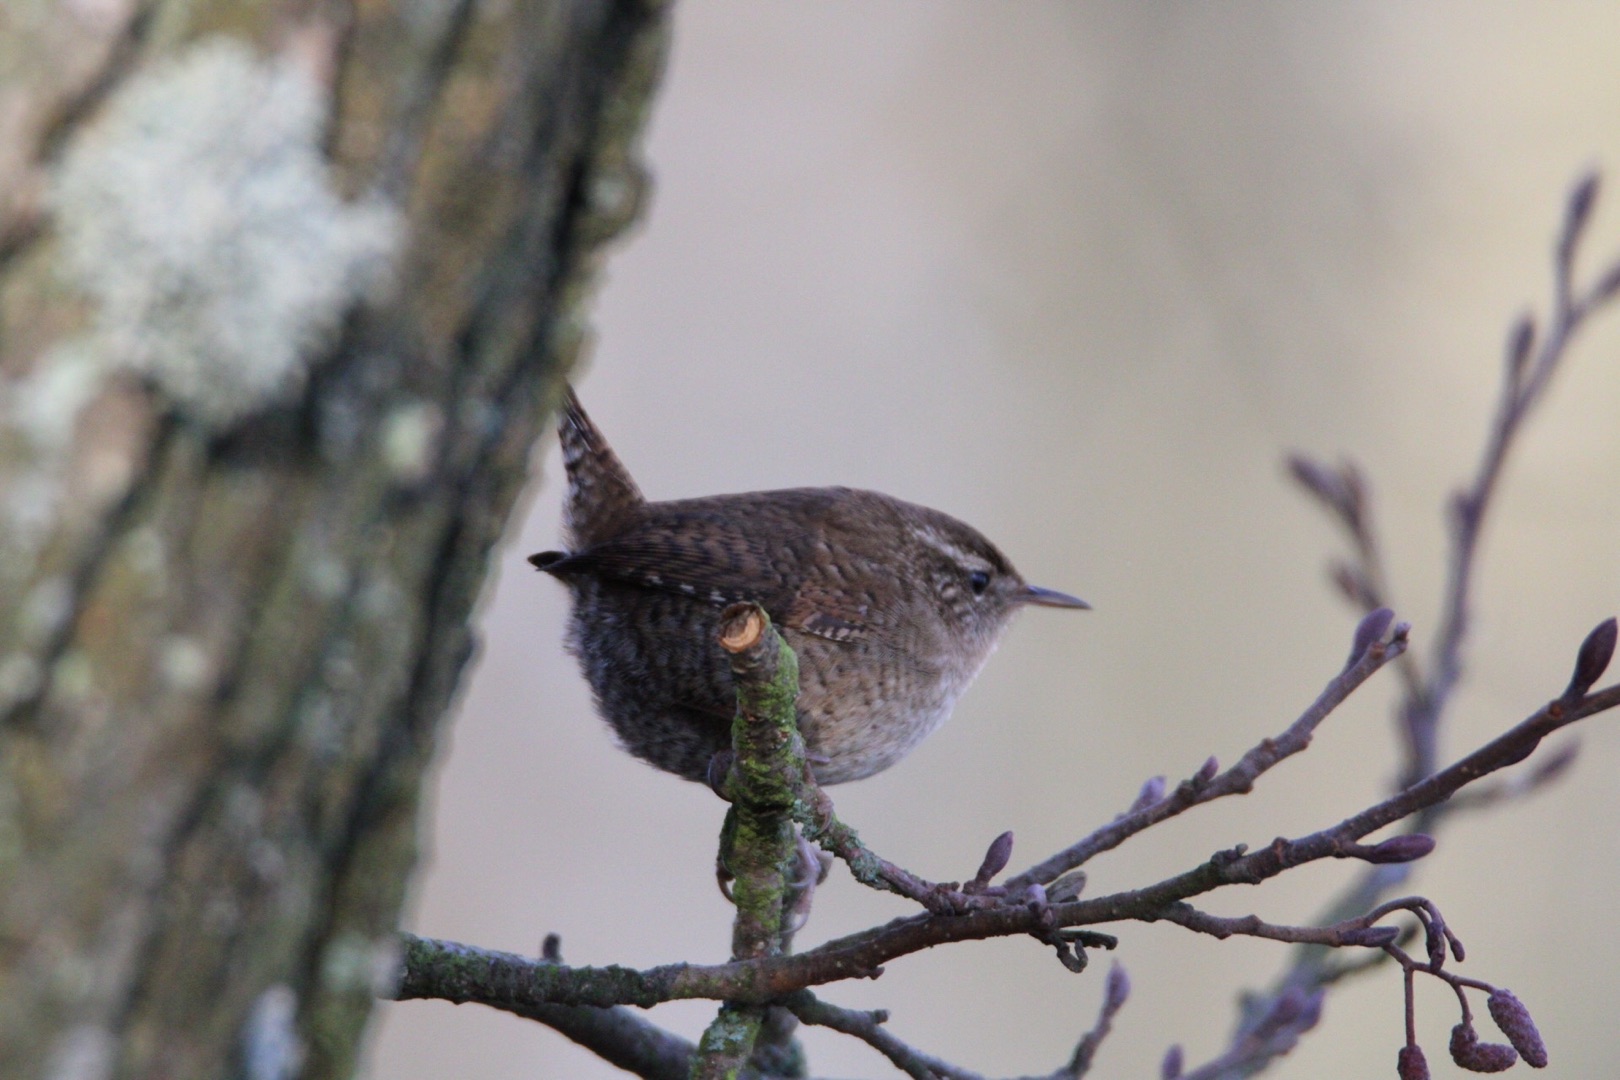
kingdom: Animalia
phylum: Chordata
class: Aves
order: Passeriformes
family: Troglodytidae
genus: Troglodytes
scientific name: Troglodytes troglodytes
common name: Gærdesmutte
